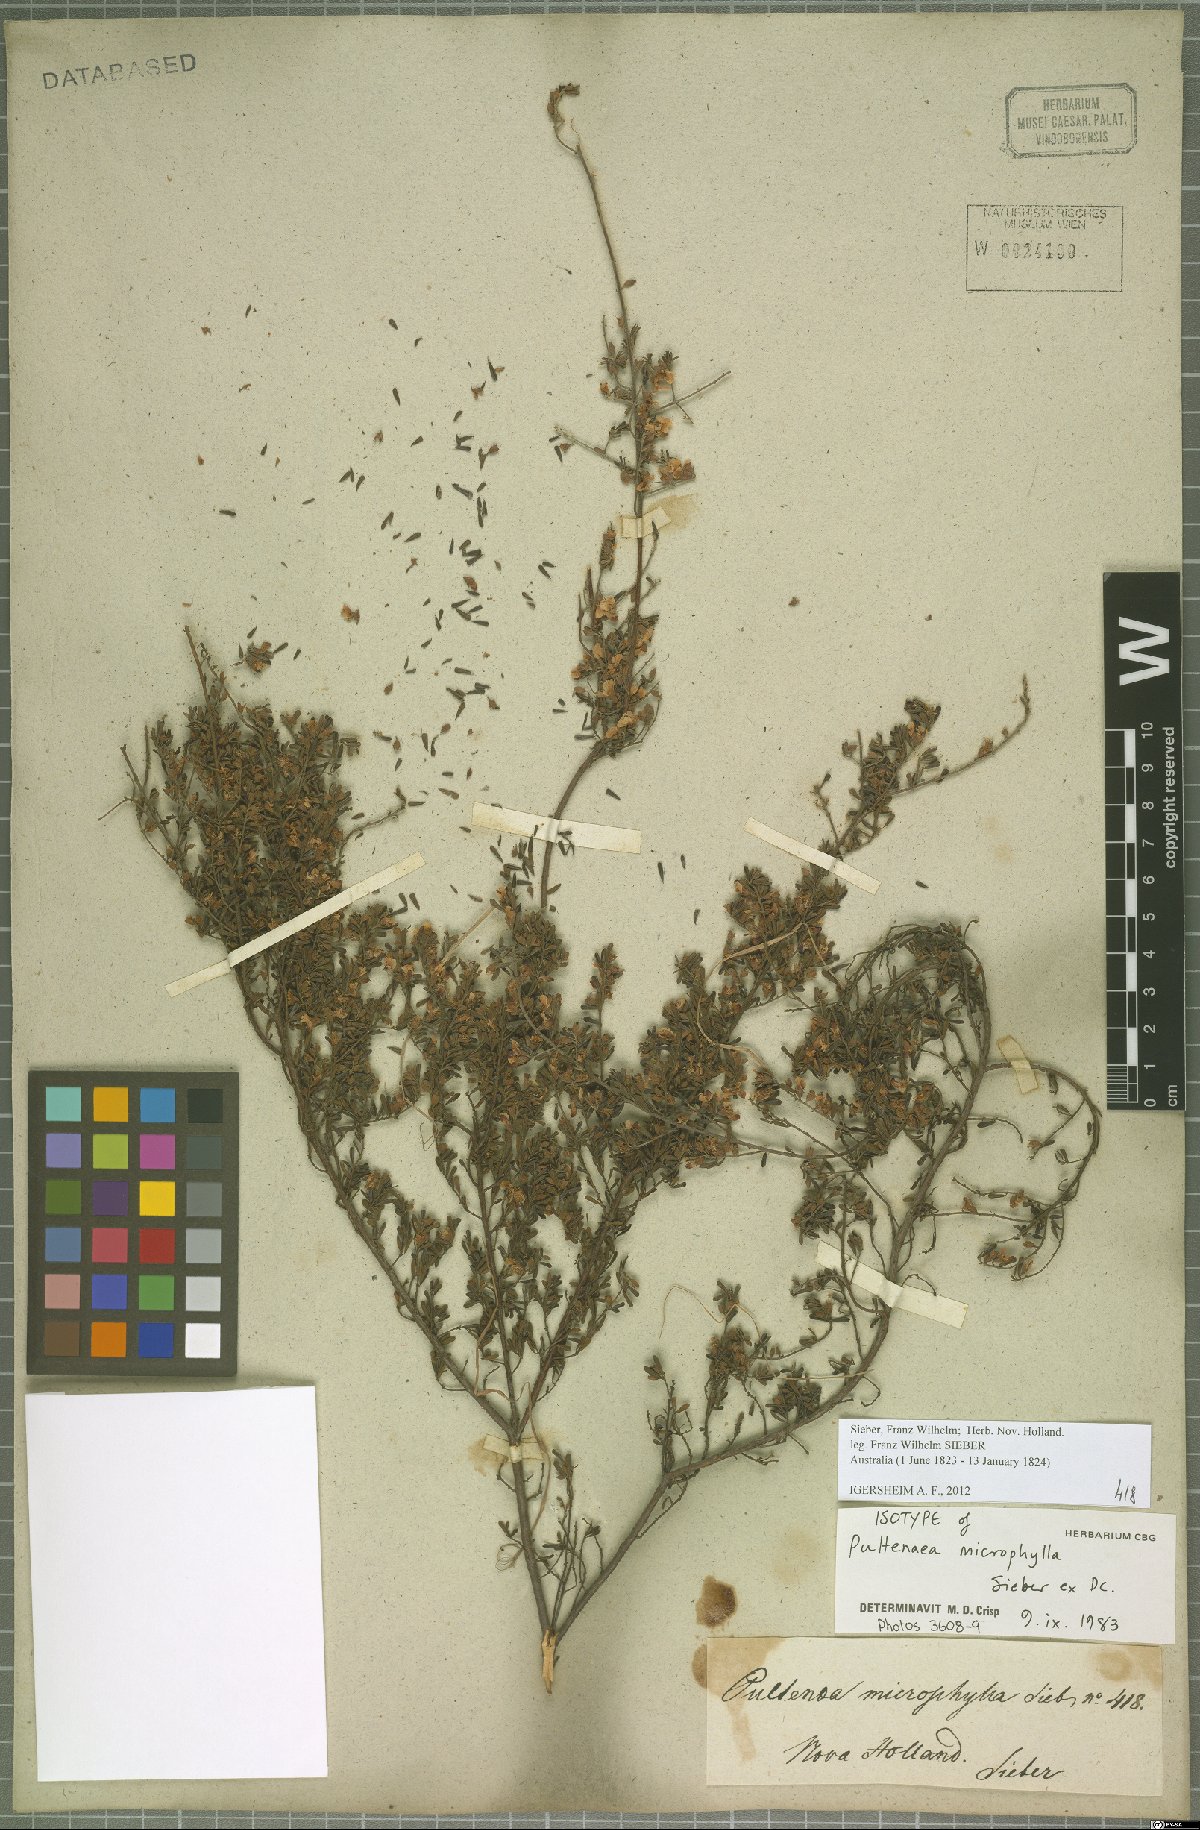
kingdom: Plantae
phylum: Tracheophyta
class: Magnoliopsida
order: Fabales
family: Fabaceae
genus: Pultenaea
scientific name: Pultenaea microphylla
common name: Spreading bush-pea
